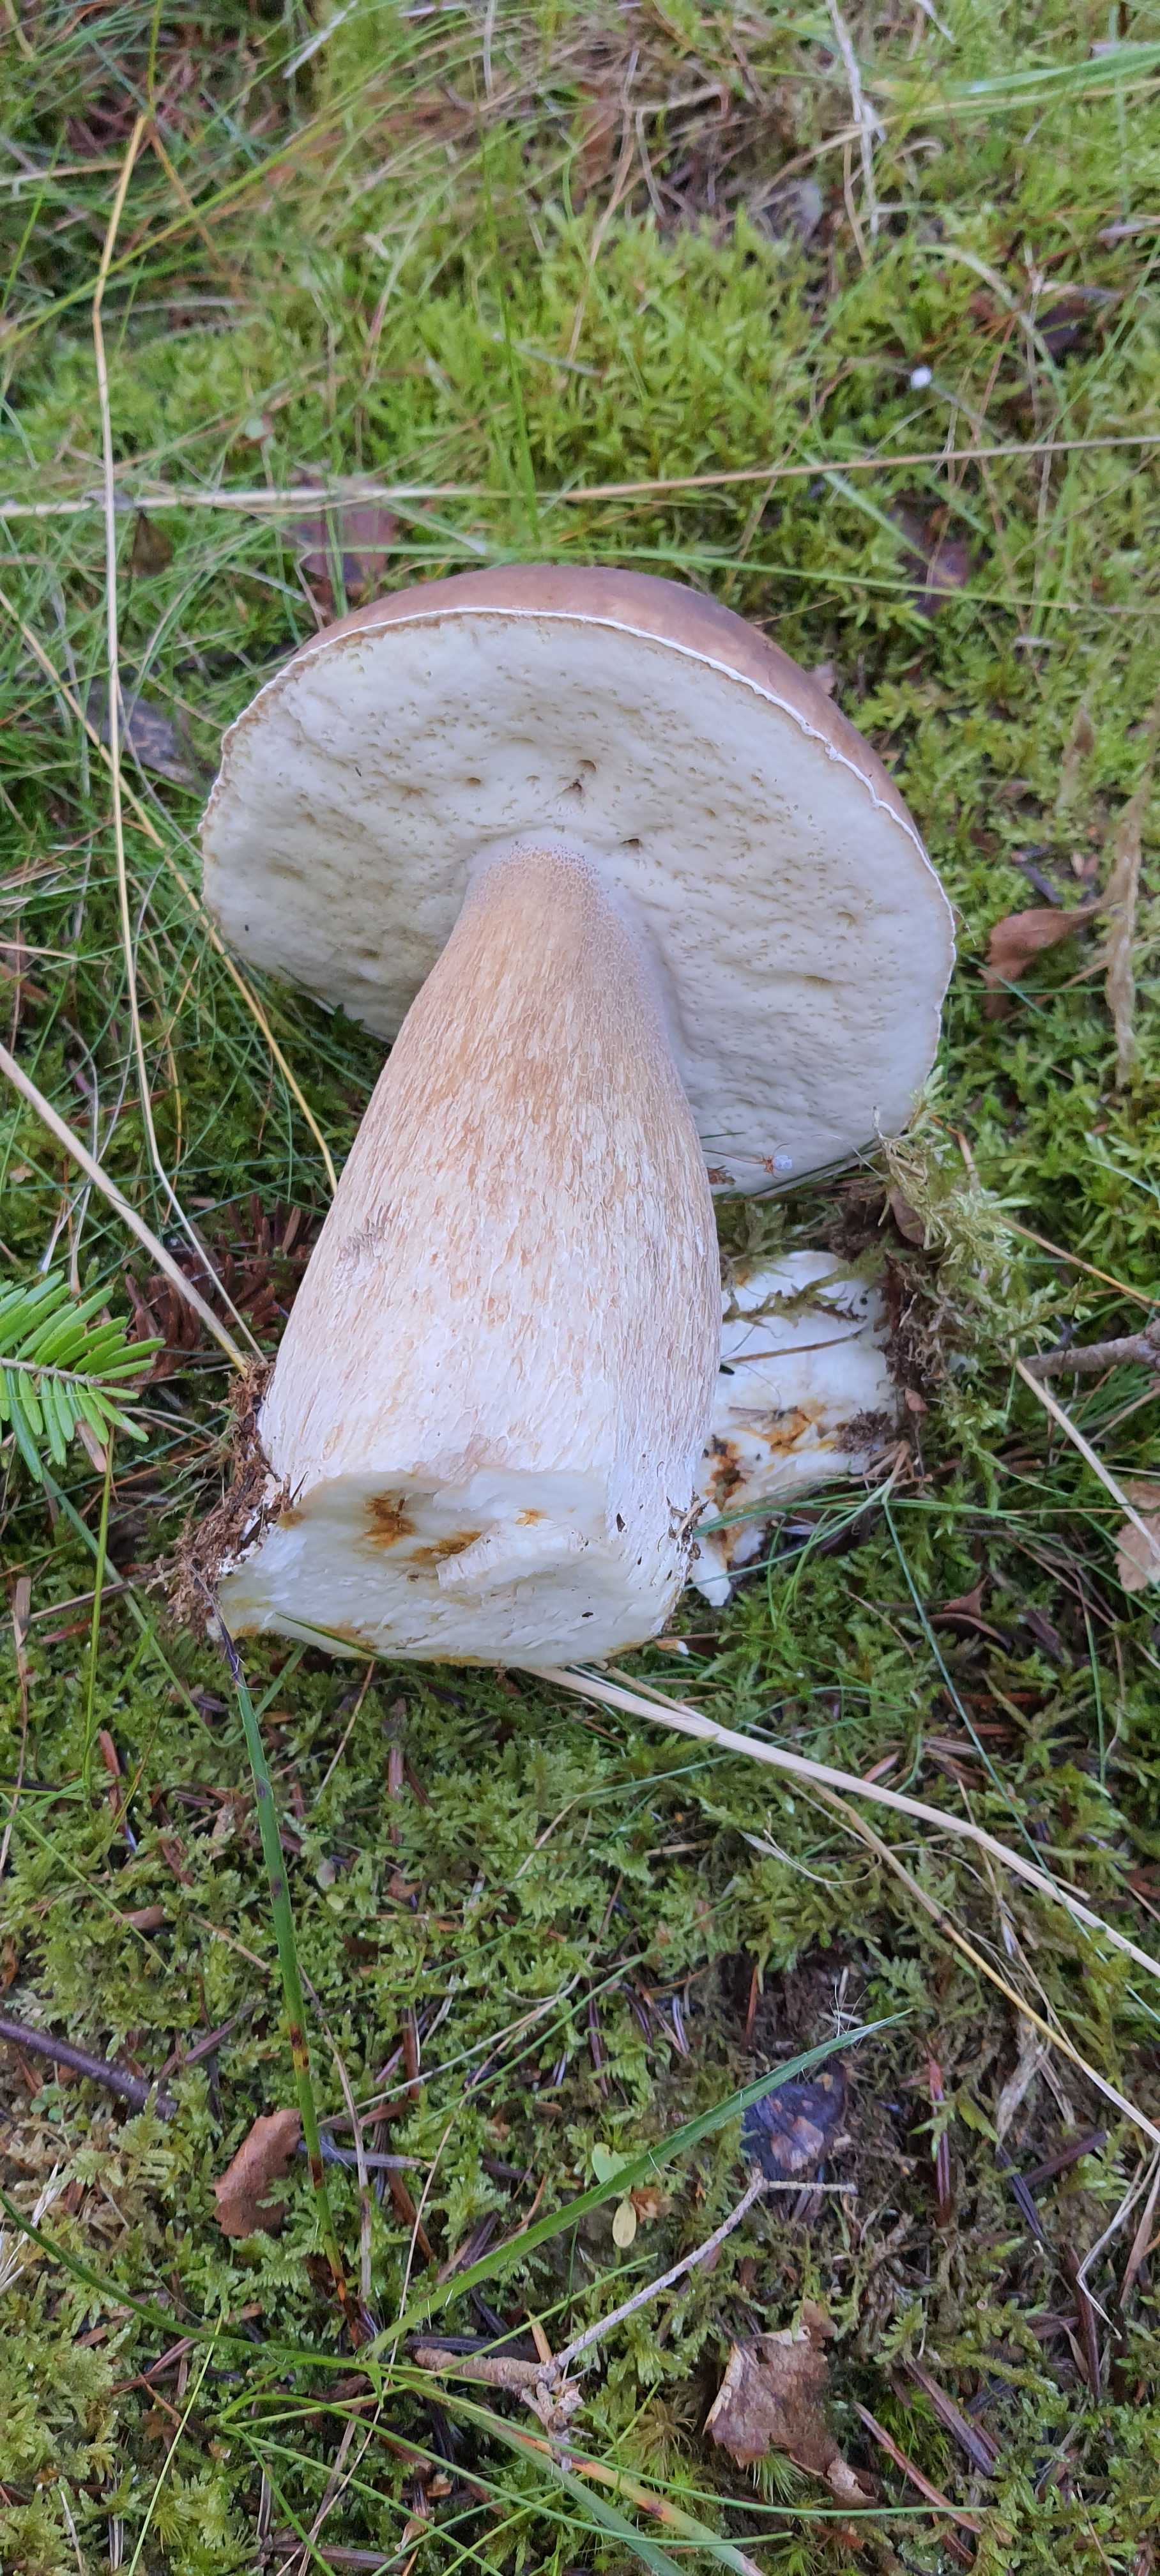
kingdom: Fungi
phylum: Basidiomycota
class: Agaricomycetes
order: Boletales
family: Boletaceae
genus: Boletus
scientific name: Boletus edulis
